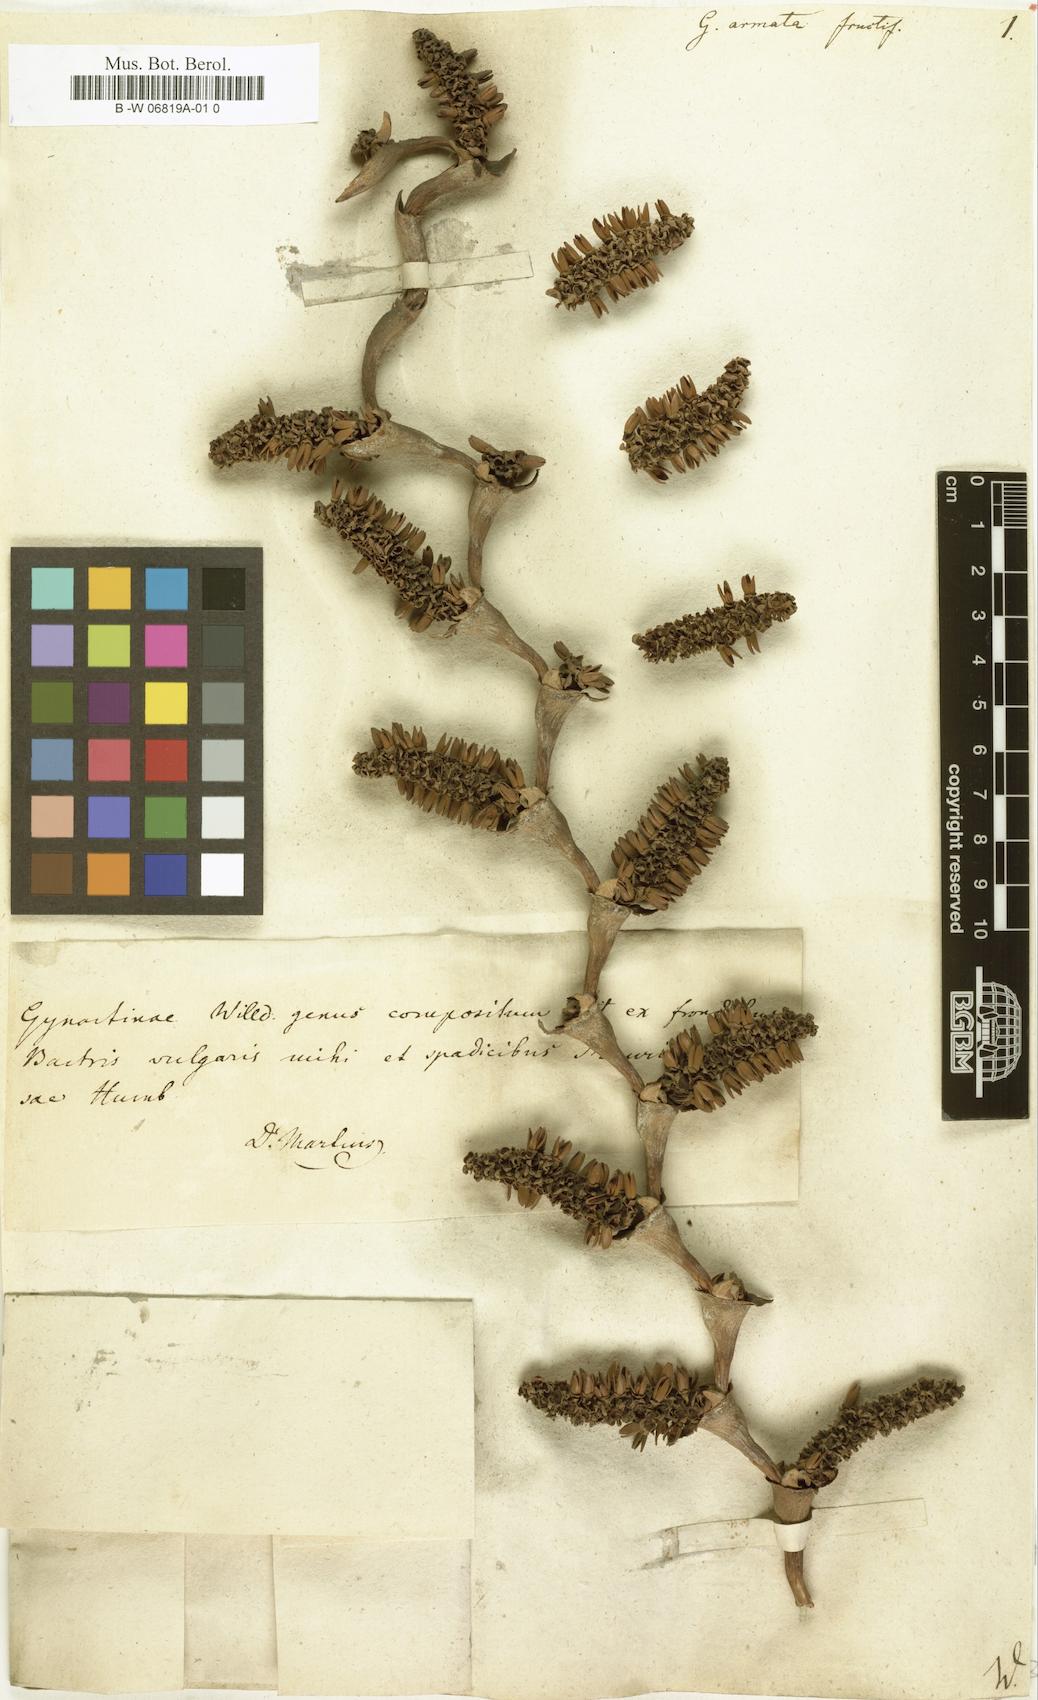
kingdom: Plantae
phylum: Tracheophyta
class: Magnoliopsida
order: Rosales
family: Urticaceae
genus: Girardinia
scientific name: Girardinia diversifolia
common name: Himalayan-nettle
